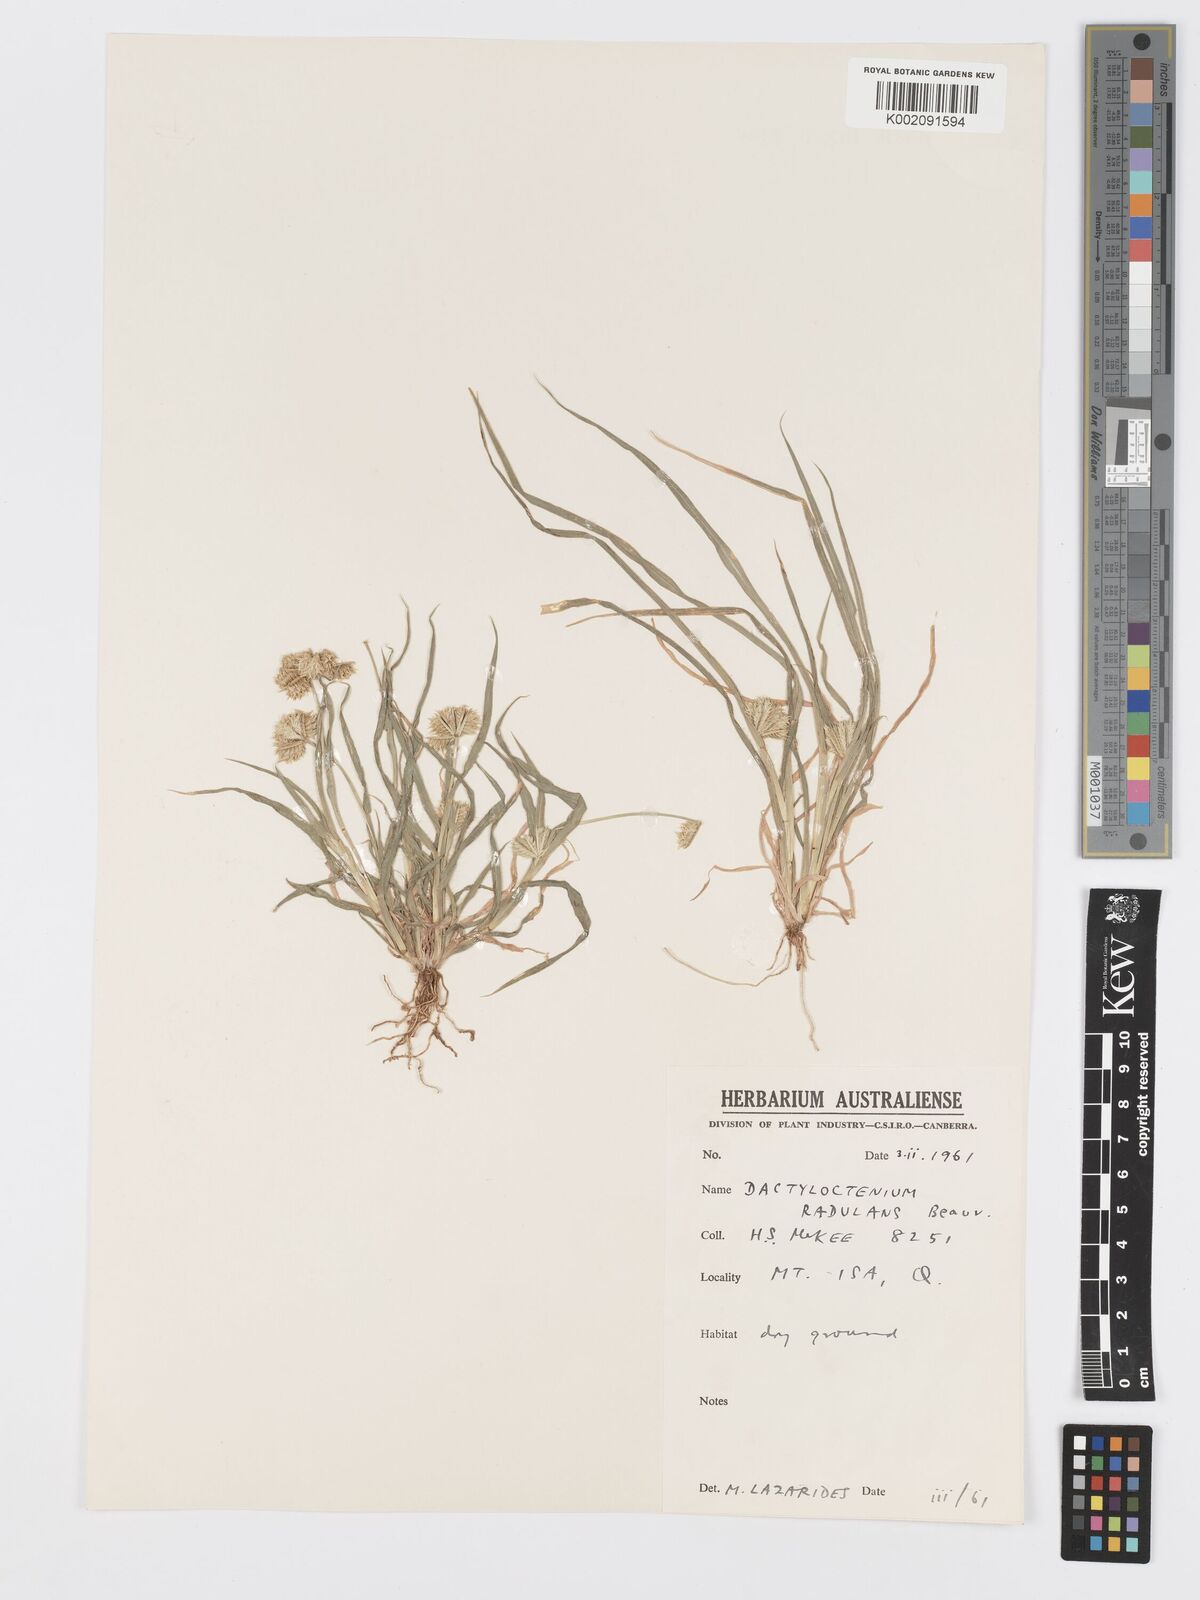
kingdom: Plantae
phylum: Tracheophyta
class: Liliopsida
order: Poales
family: Poaceae
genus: Dactyloctenium
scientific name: Dactyloctenium radulans
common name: Button-grass
